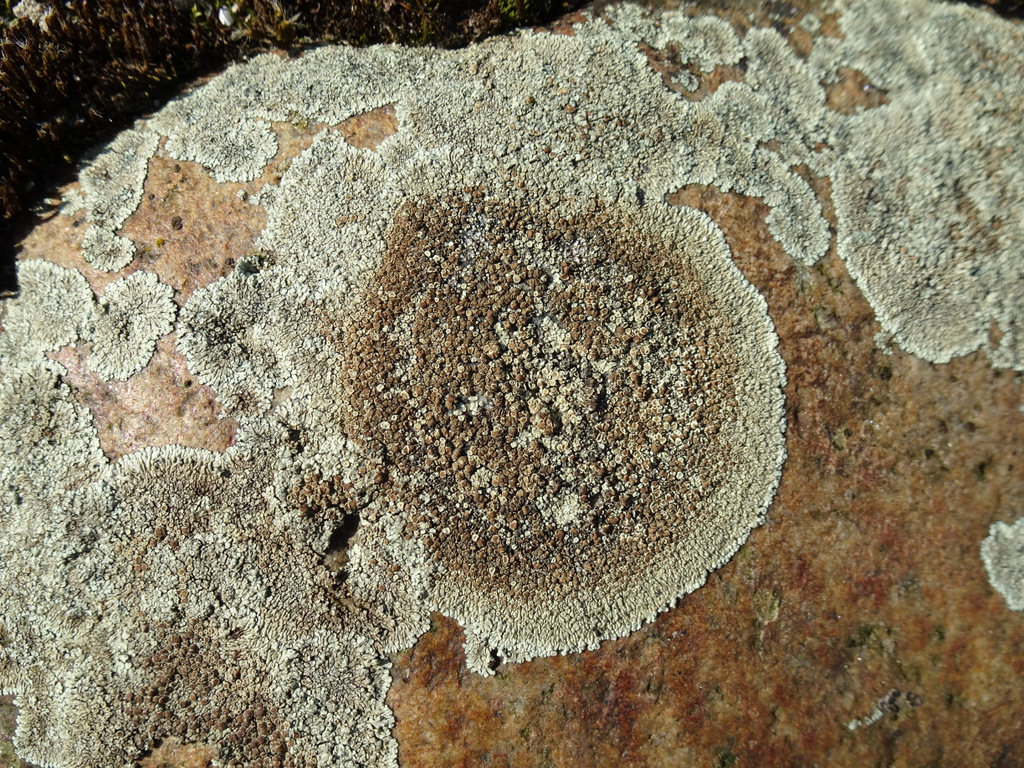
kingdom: Fungi
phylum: Ascomycota
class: Lecanoromycetes
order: Lecanorales
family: Lecanoraceae
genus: Protoparmeliopsis
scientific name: Protoparmeliopsis muralis
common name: randfliget kantskivelav
